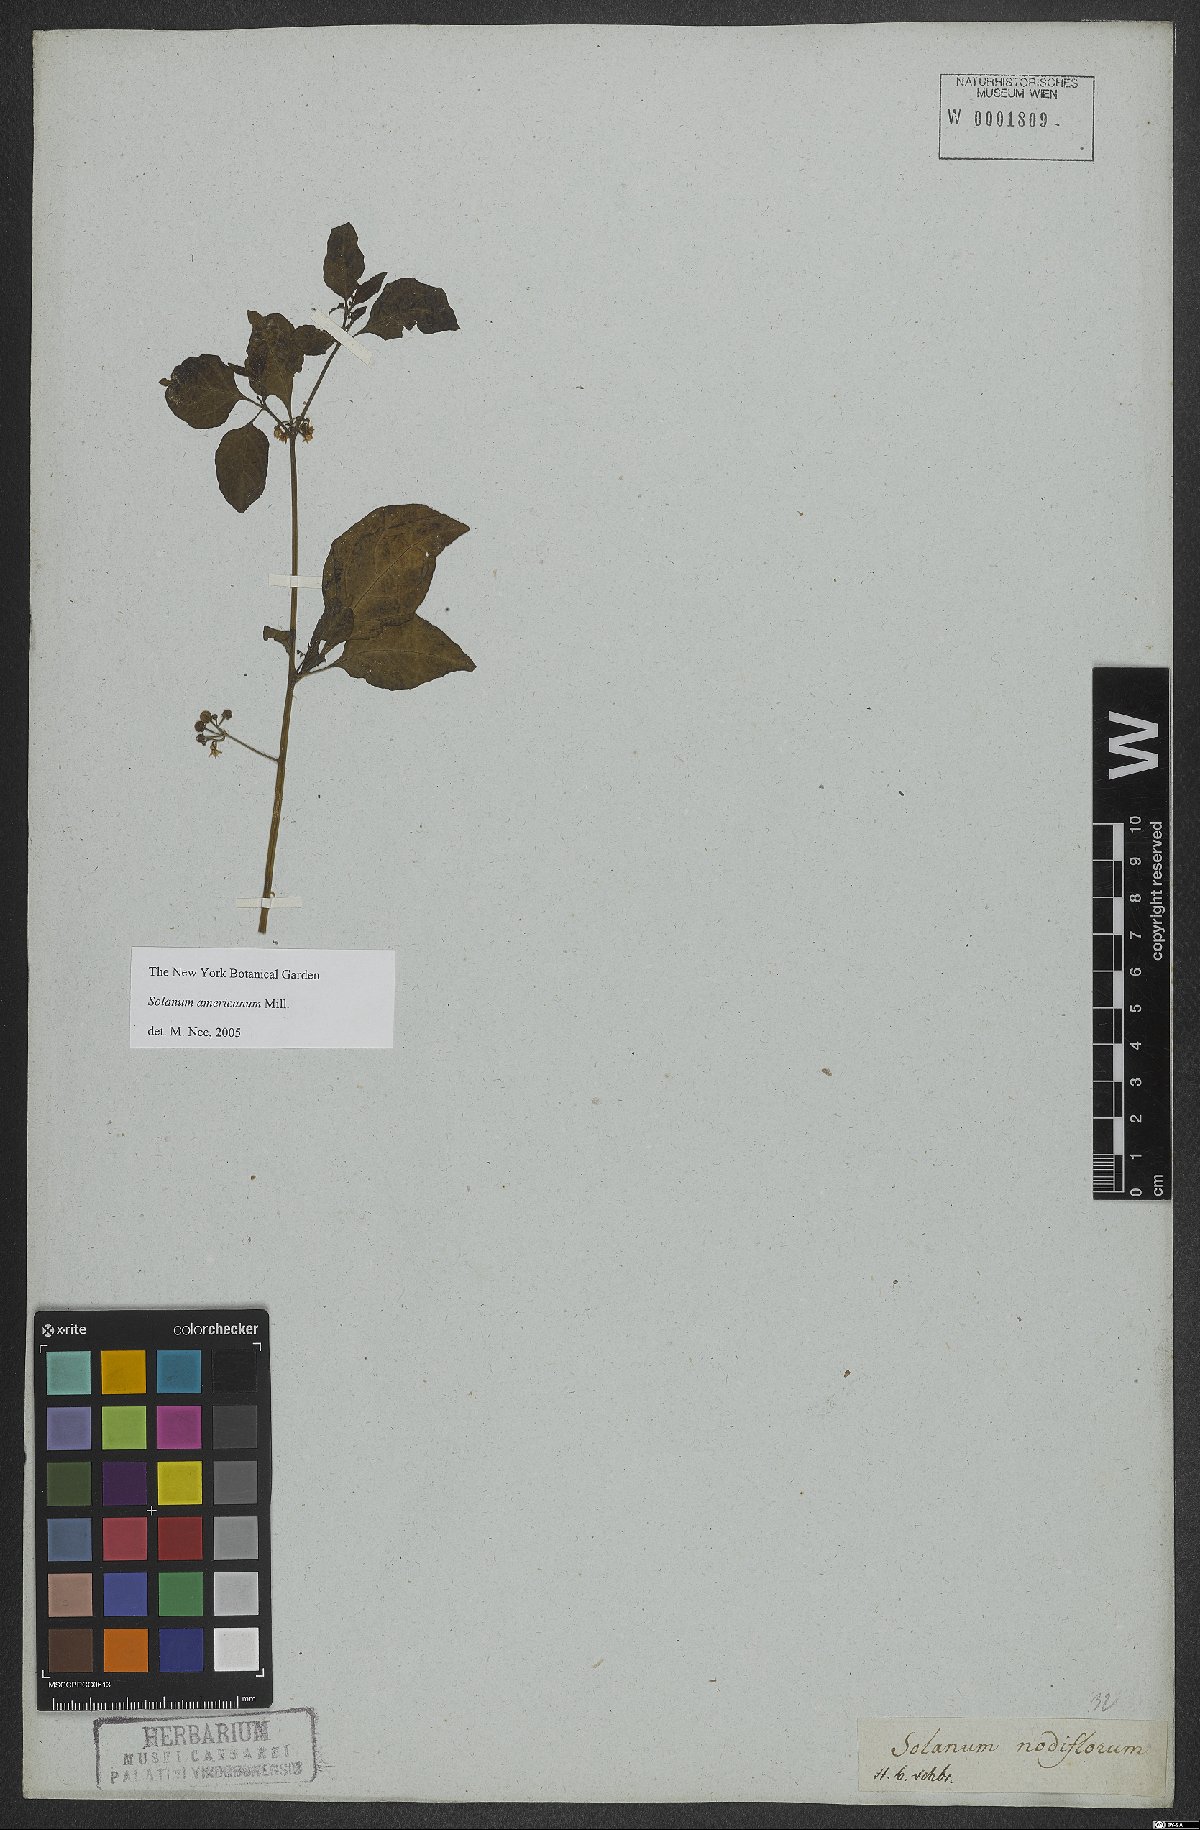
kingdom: Plantae
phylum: Tracheophyta
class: Magnoliopsida
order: Solanales
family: Solanaceae
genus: Solanum
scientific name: Solanum americanum
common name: American black nightshade
